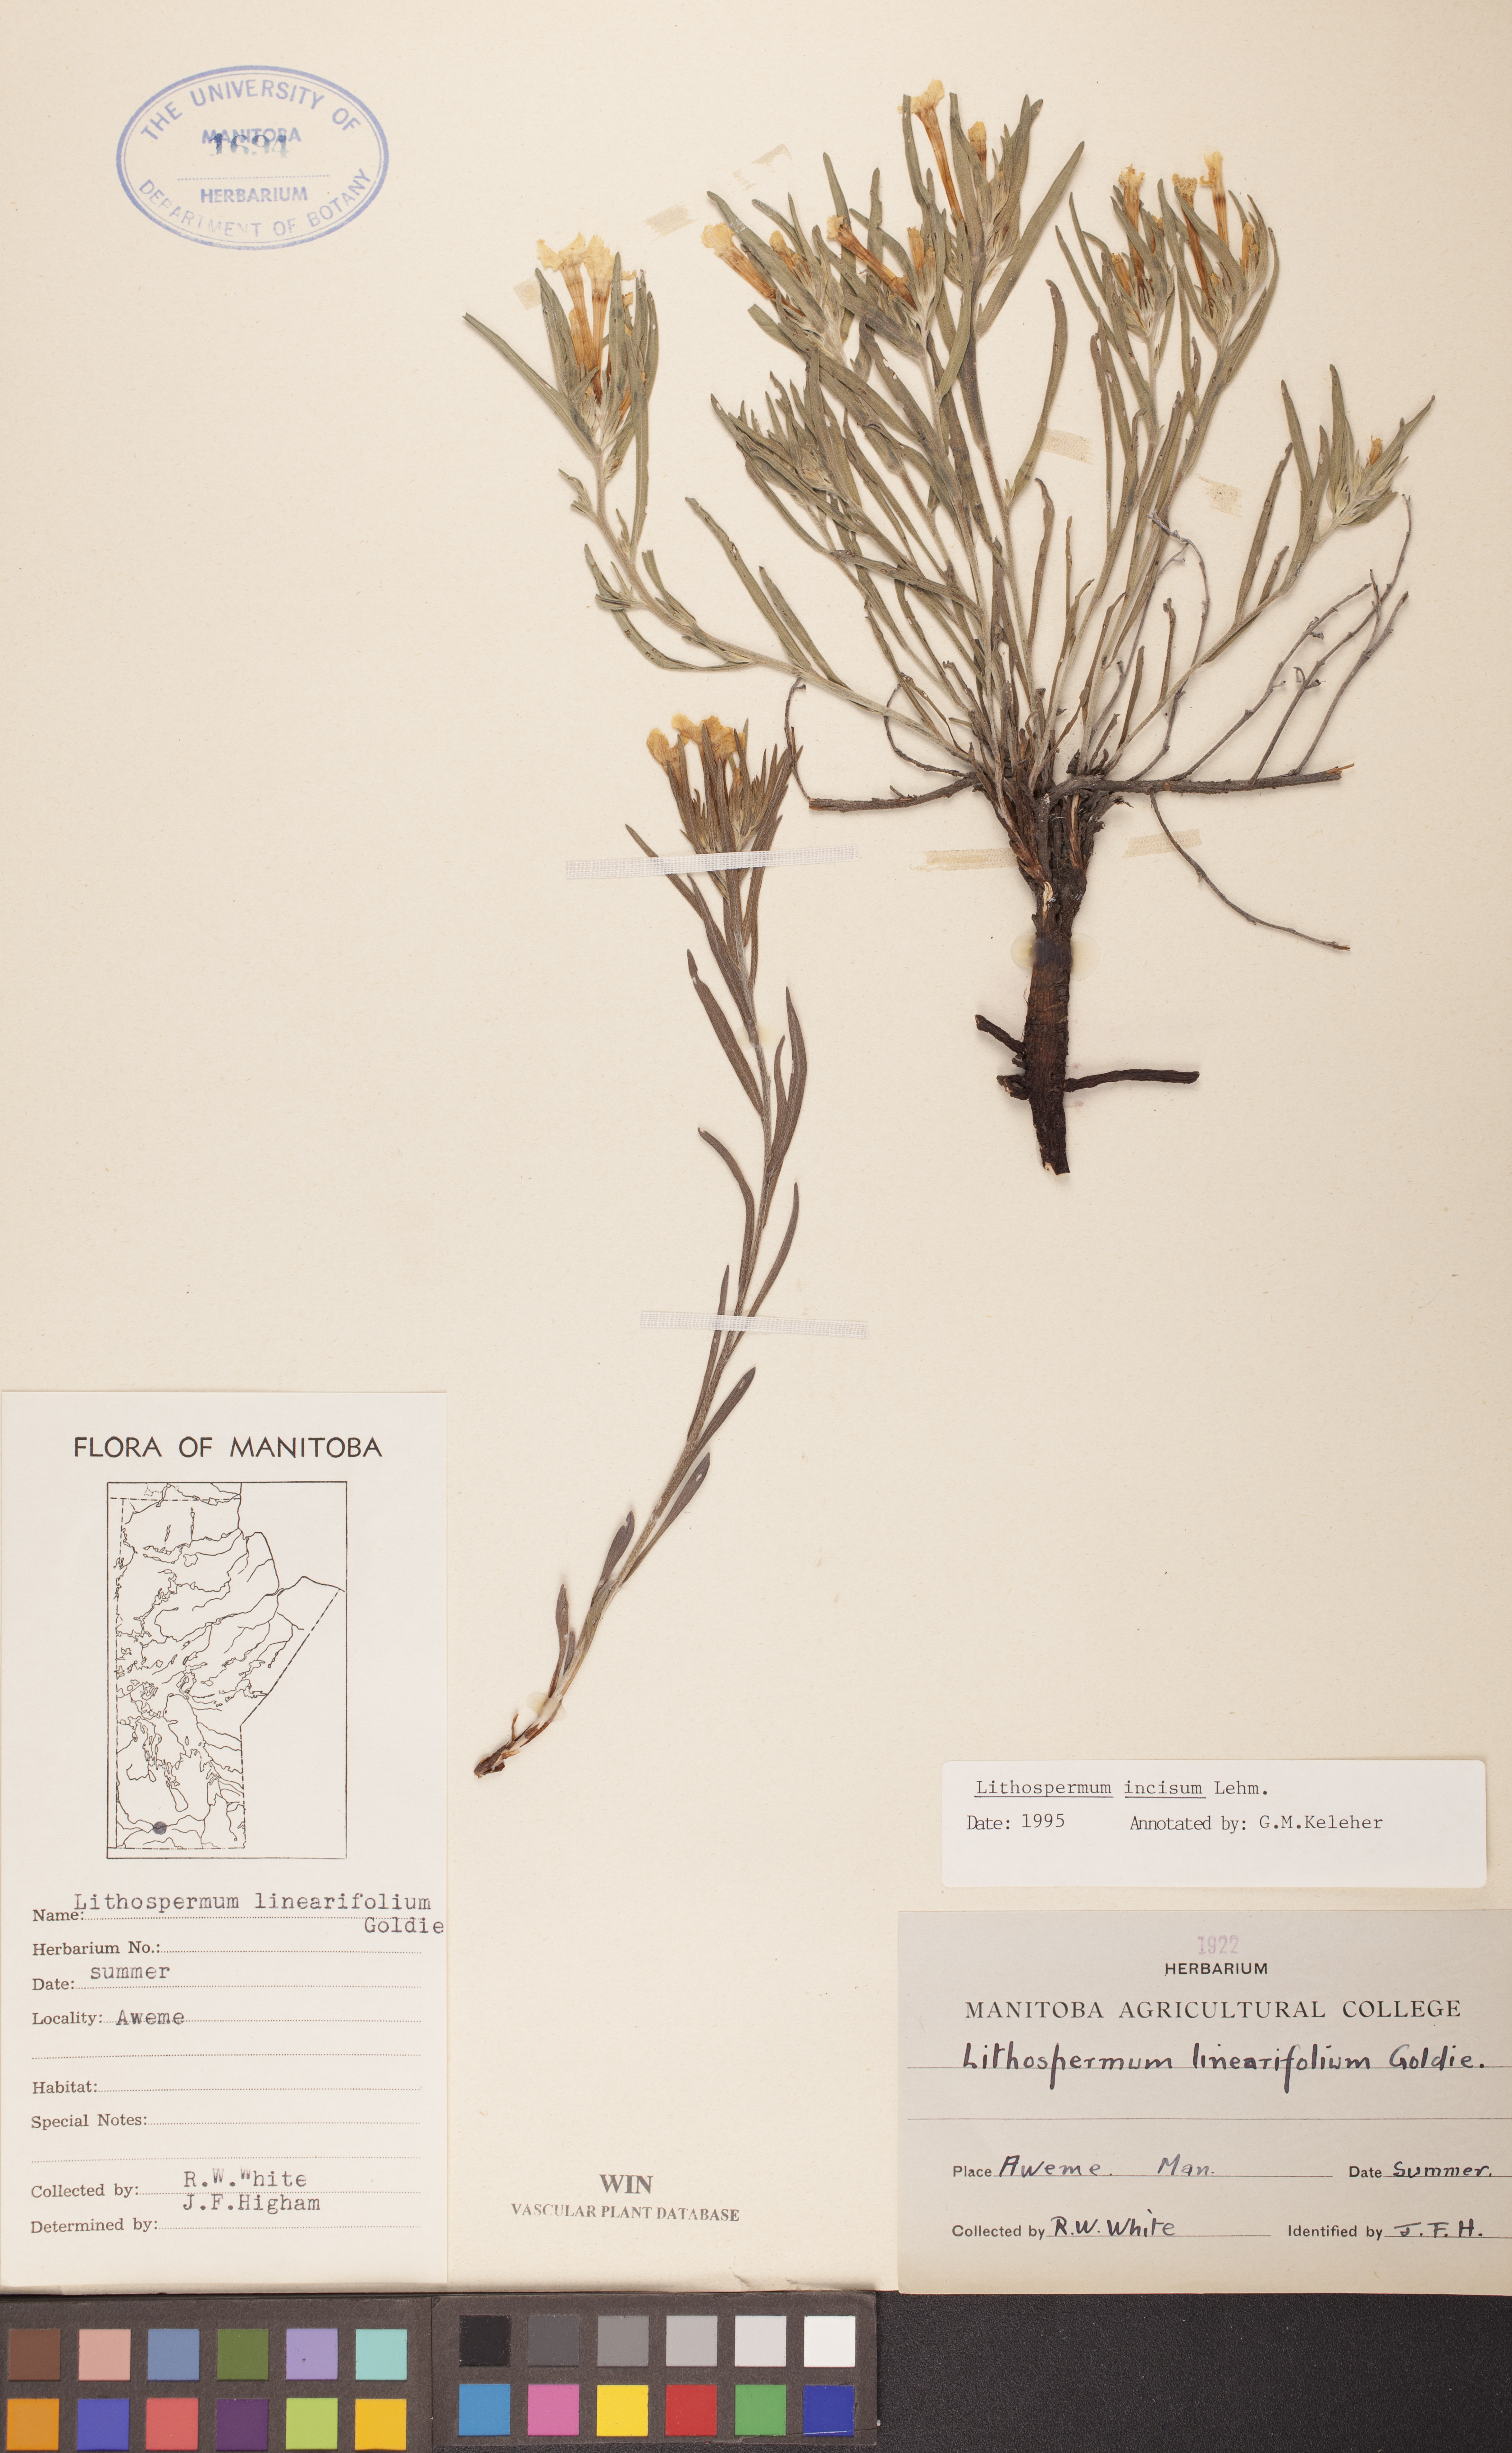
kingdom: Plantae
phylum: Tracheophyta
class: Magnoliopsida
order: Boraginales
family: Boraginaceae
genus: Lithospermum
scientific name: Lithospermum incisum
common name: Fringed gromwell
